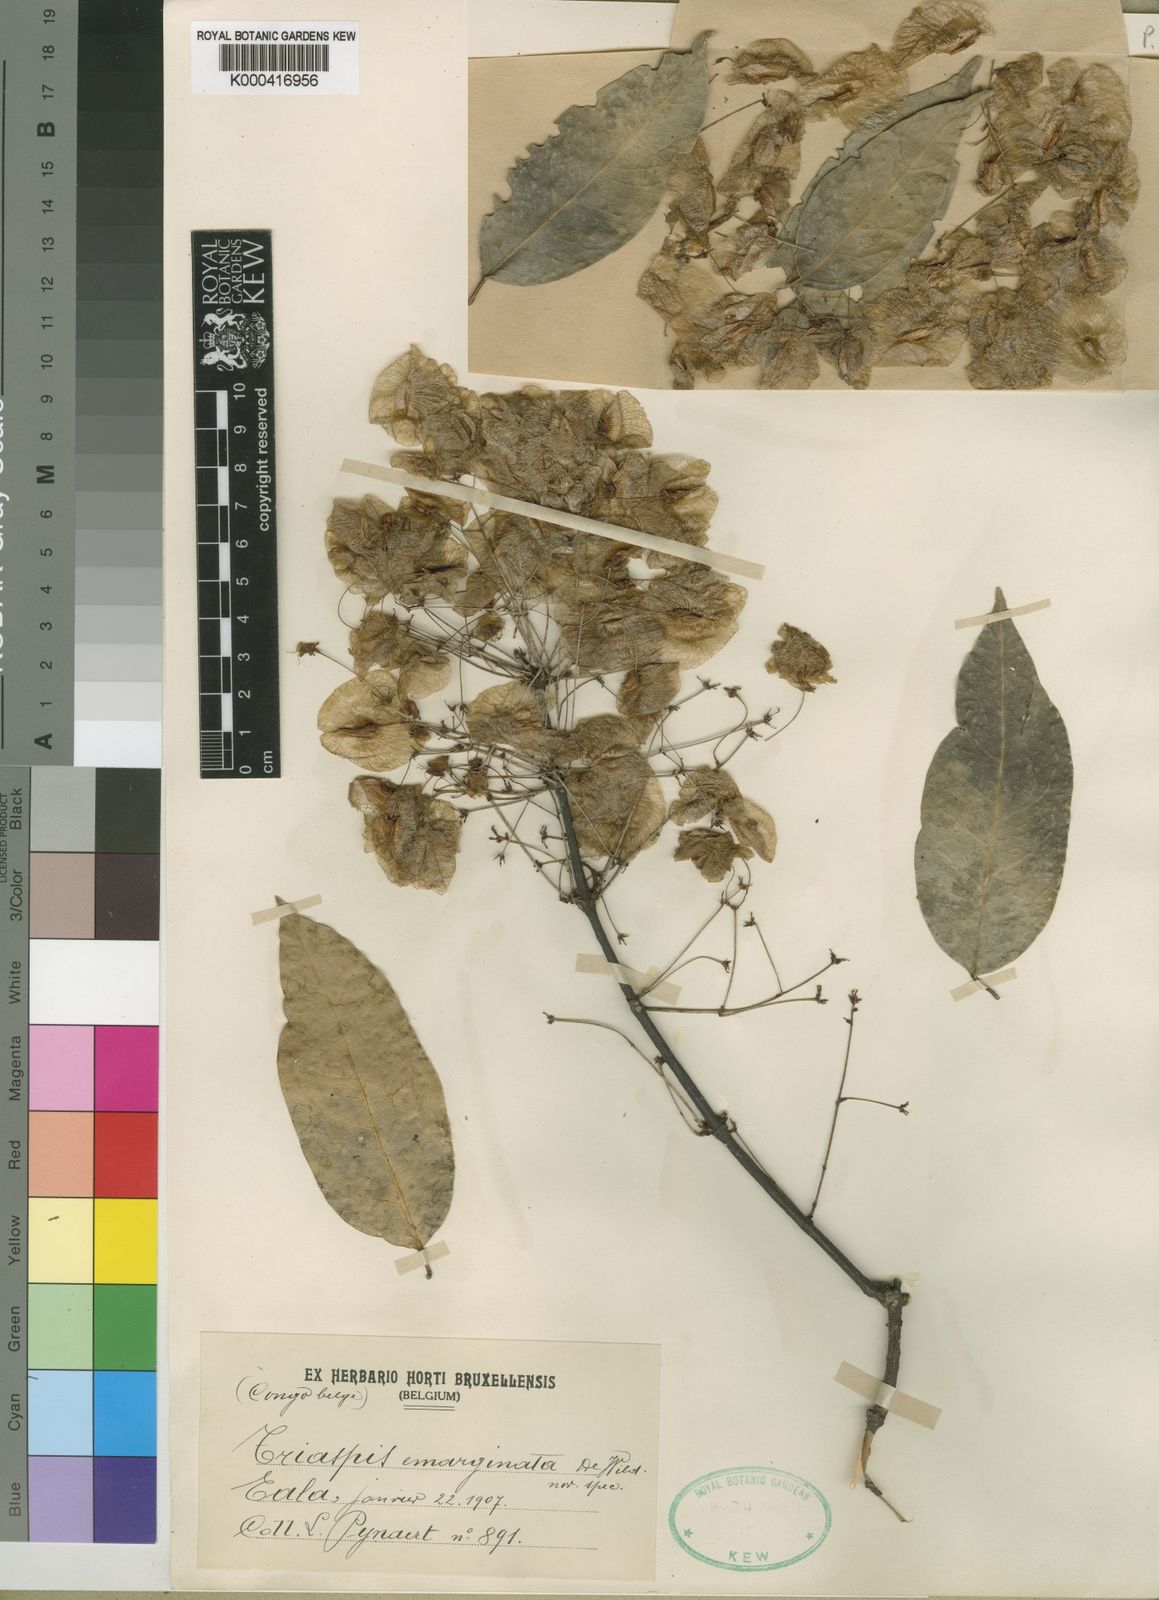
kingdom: Plantae
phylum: Tracheophyta
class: Magnoliopsida
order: Malpighiales
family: Malpighiaceae
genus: Triaspis
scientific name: Triaspis emarginata
